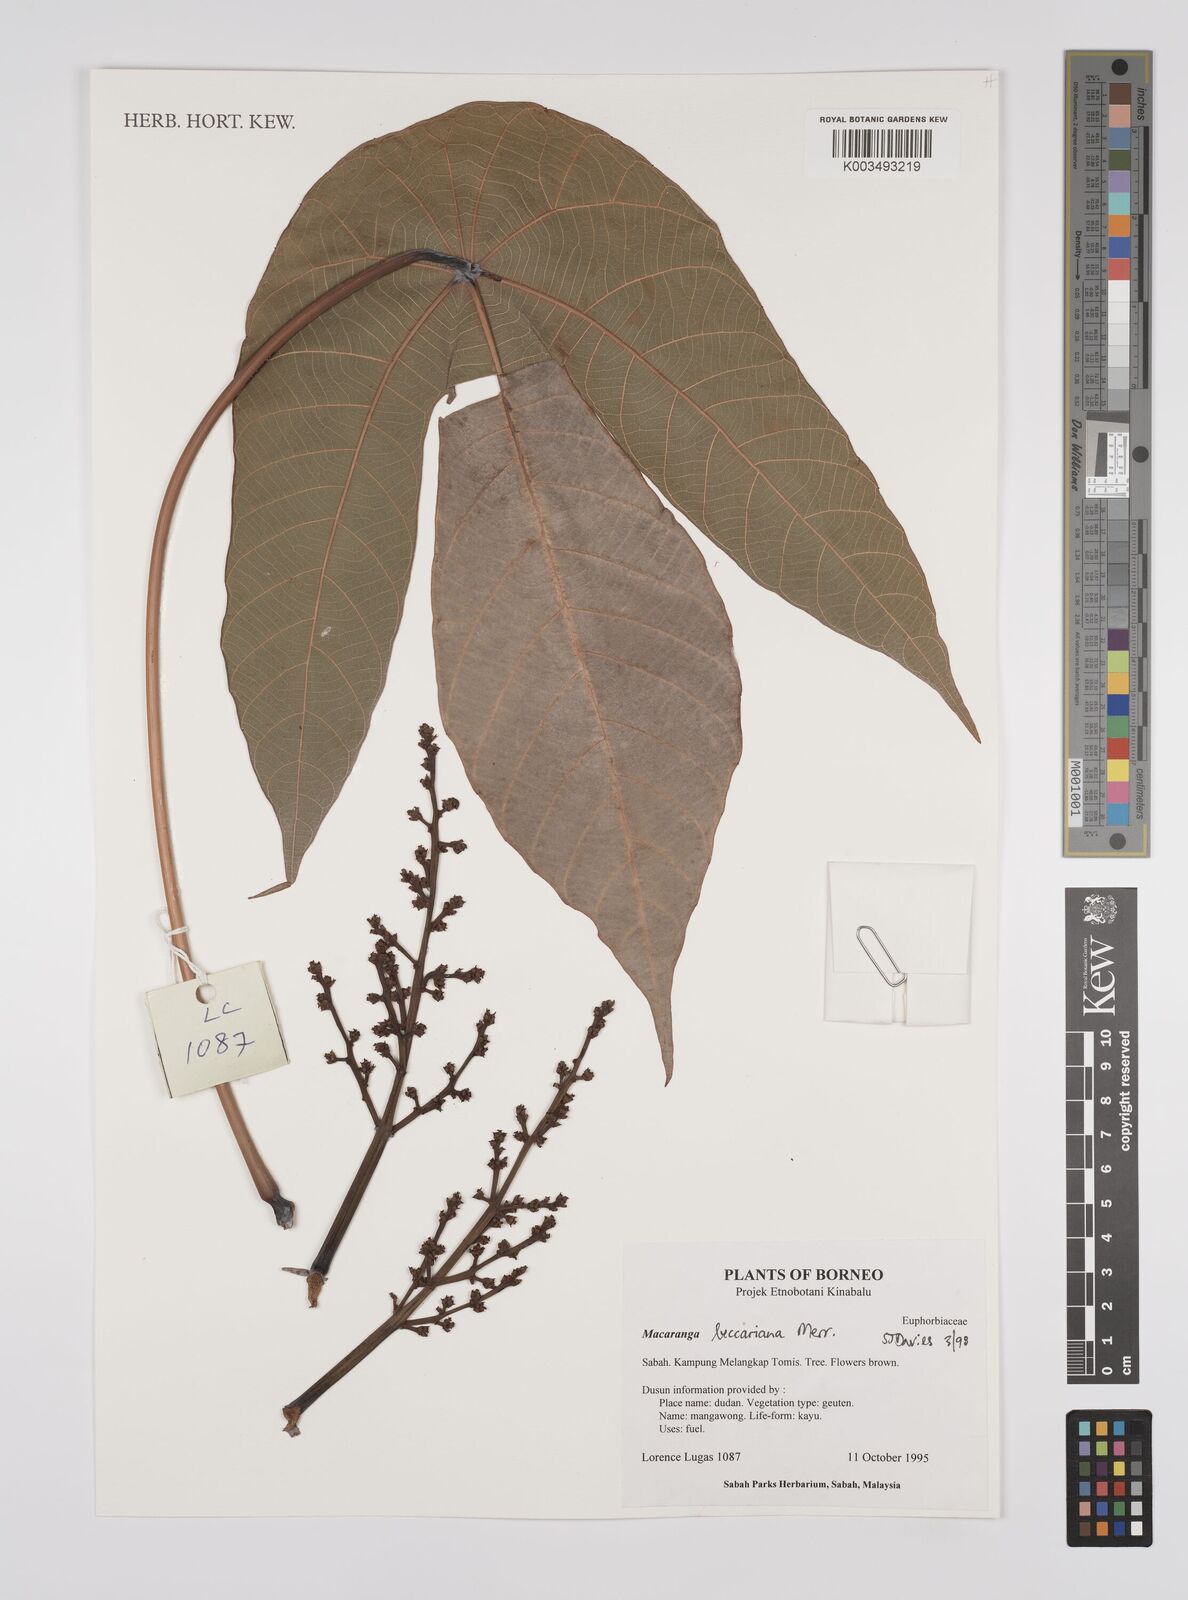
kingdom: Plantae
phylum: Tracheophyta
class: Magnoliopsida
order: Malpighiales
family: Euphorbiaceae
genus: Macaranga
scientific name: Macaranga beccariana
